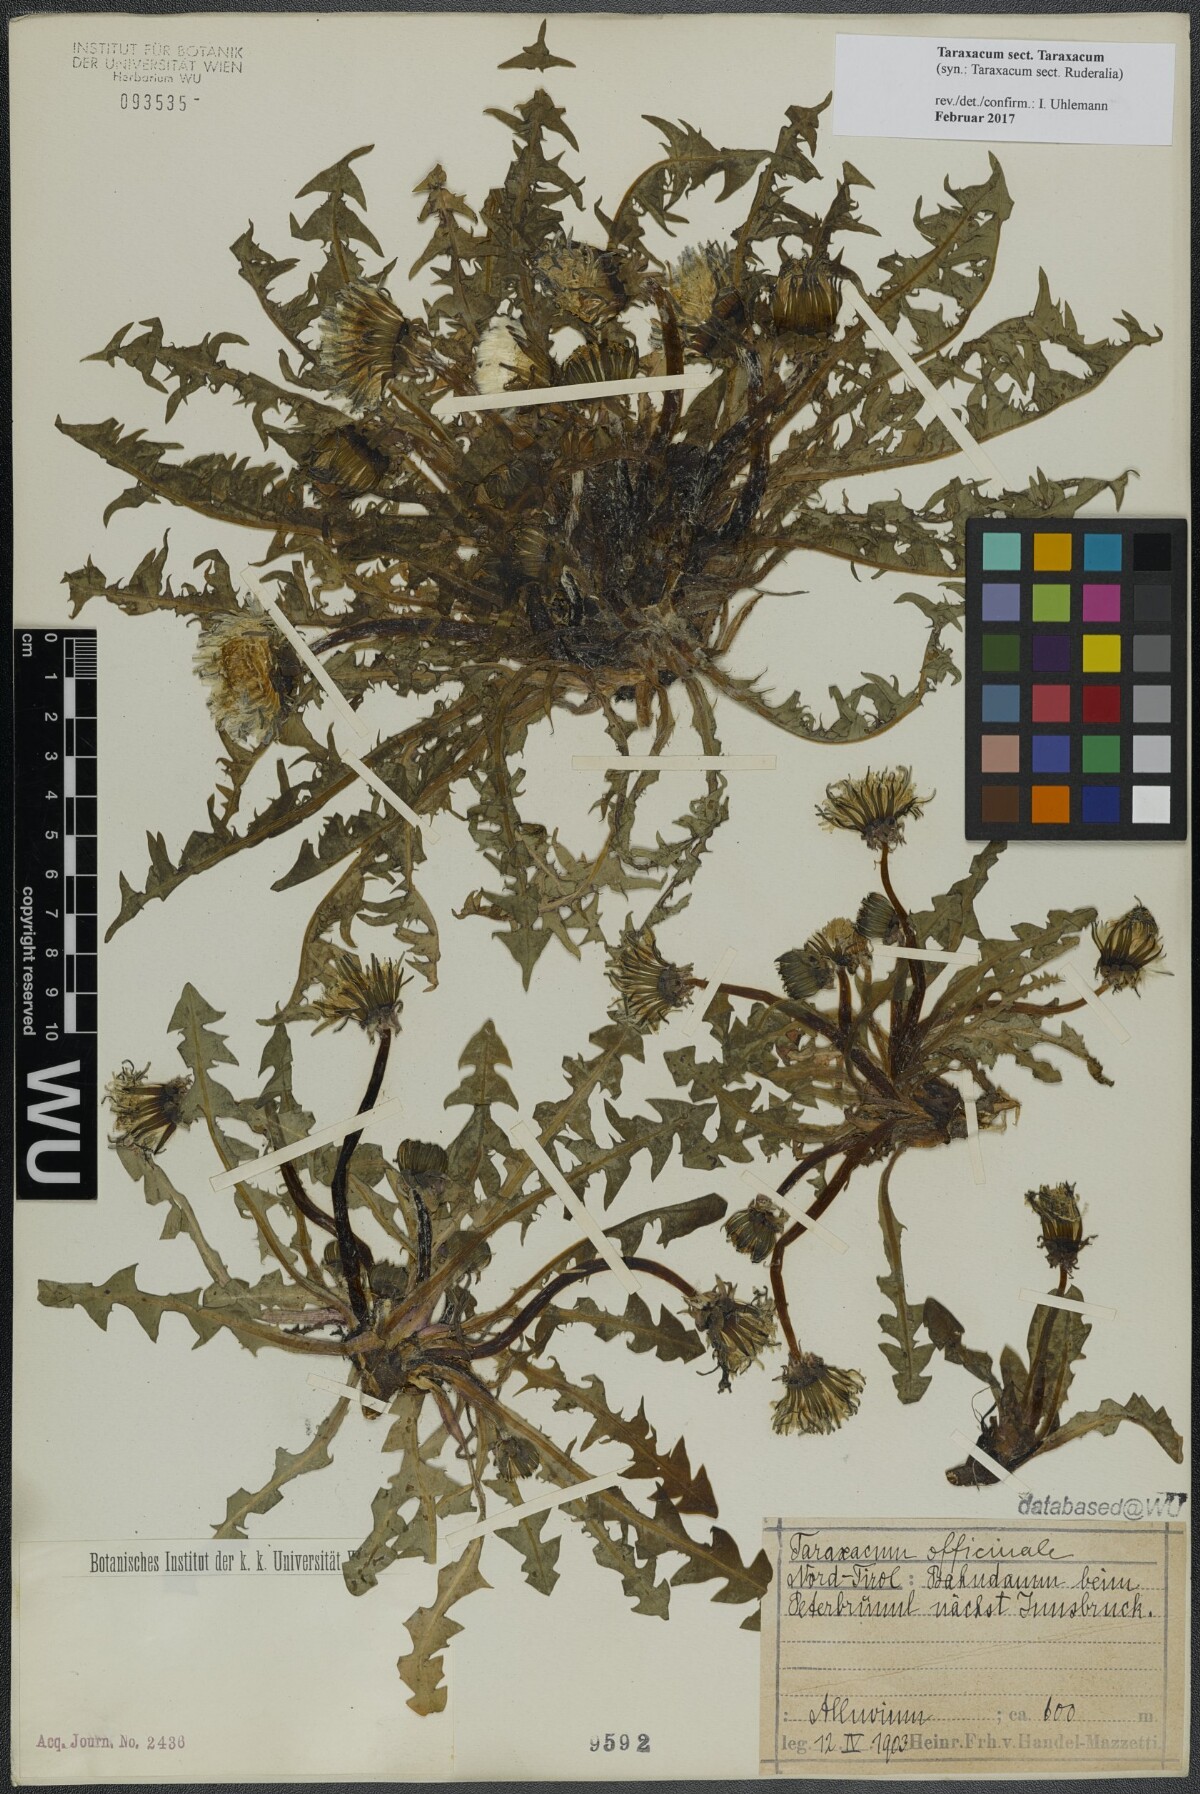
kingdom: Plantae
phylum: Tracheophyta
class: Magnoliopsida
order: Asterales
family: Asteraceae
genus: Taraxacum
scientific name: Taraxacum
